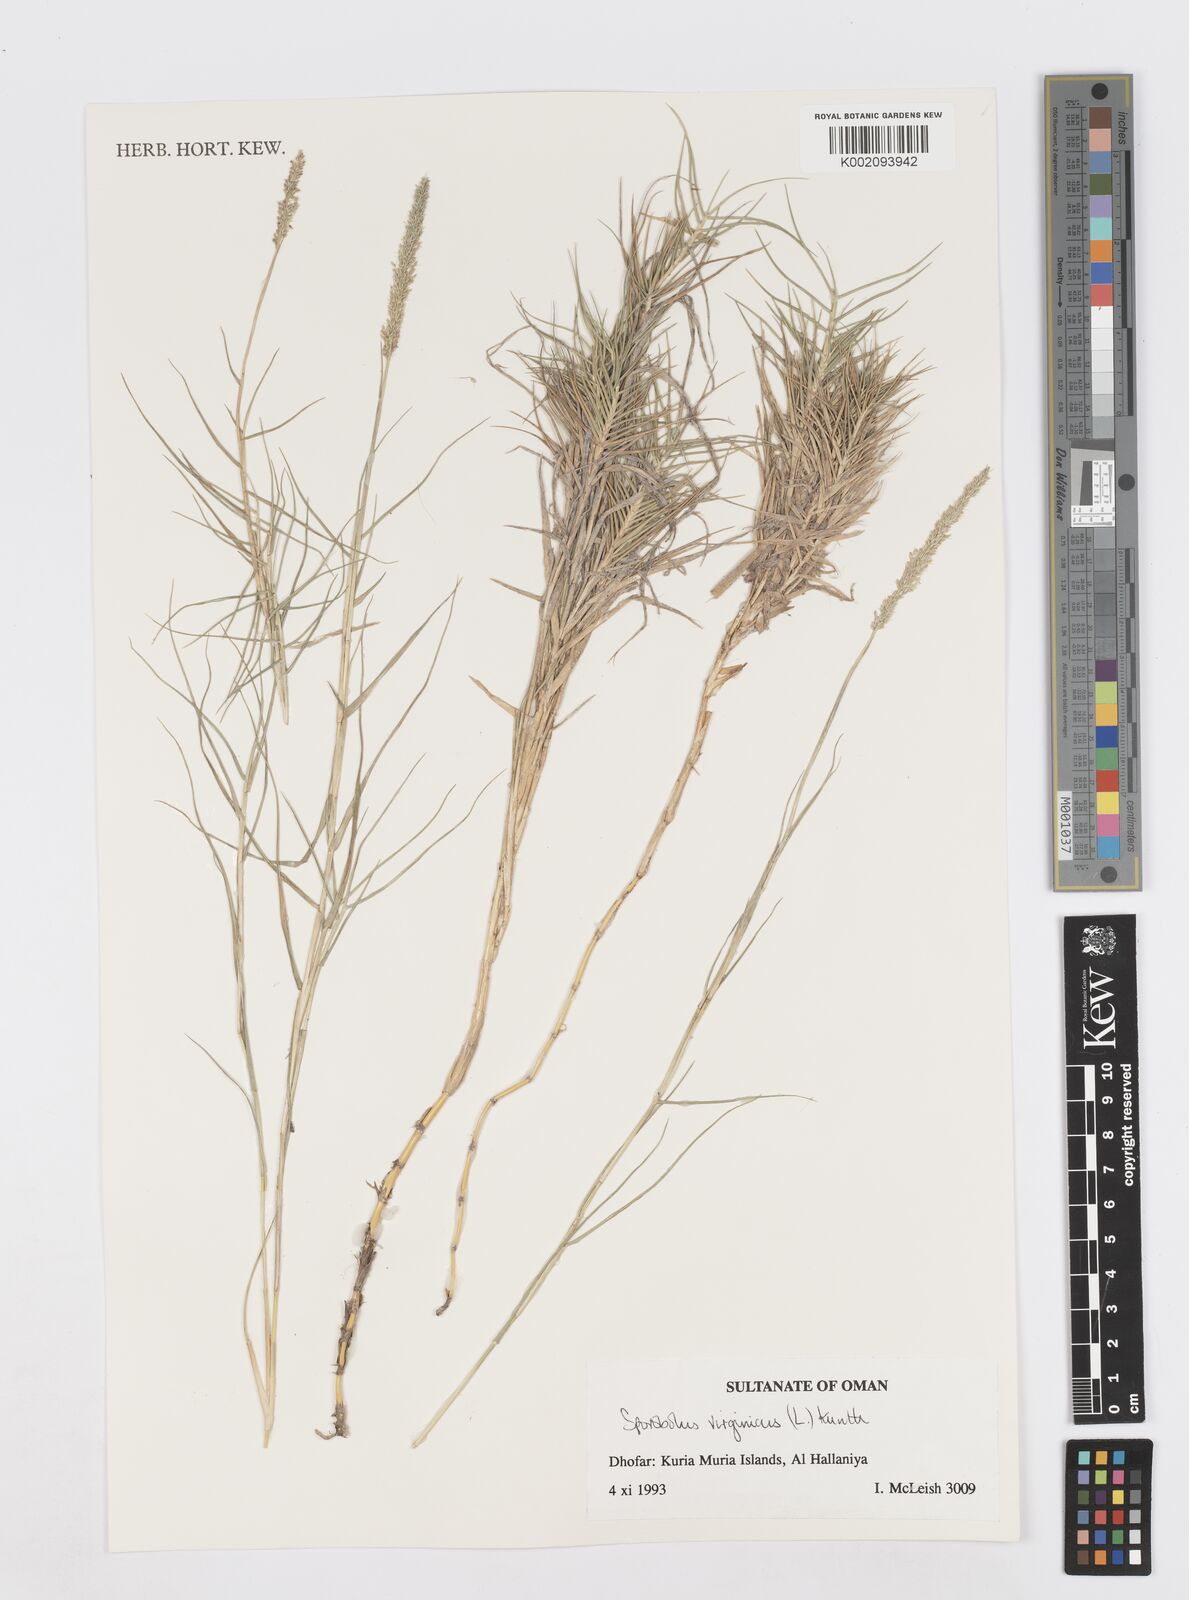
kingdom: Plantae
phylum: Tracheophyta
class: Liliopsida
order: Poales
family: Poaceae
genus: Sporobolus
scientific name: Sporobolus virginicus
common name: Beach dropseed
